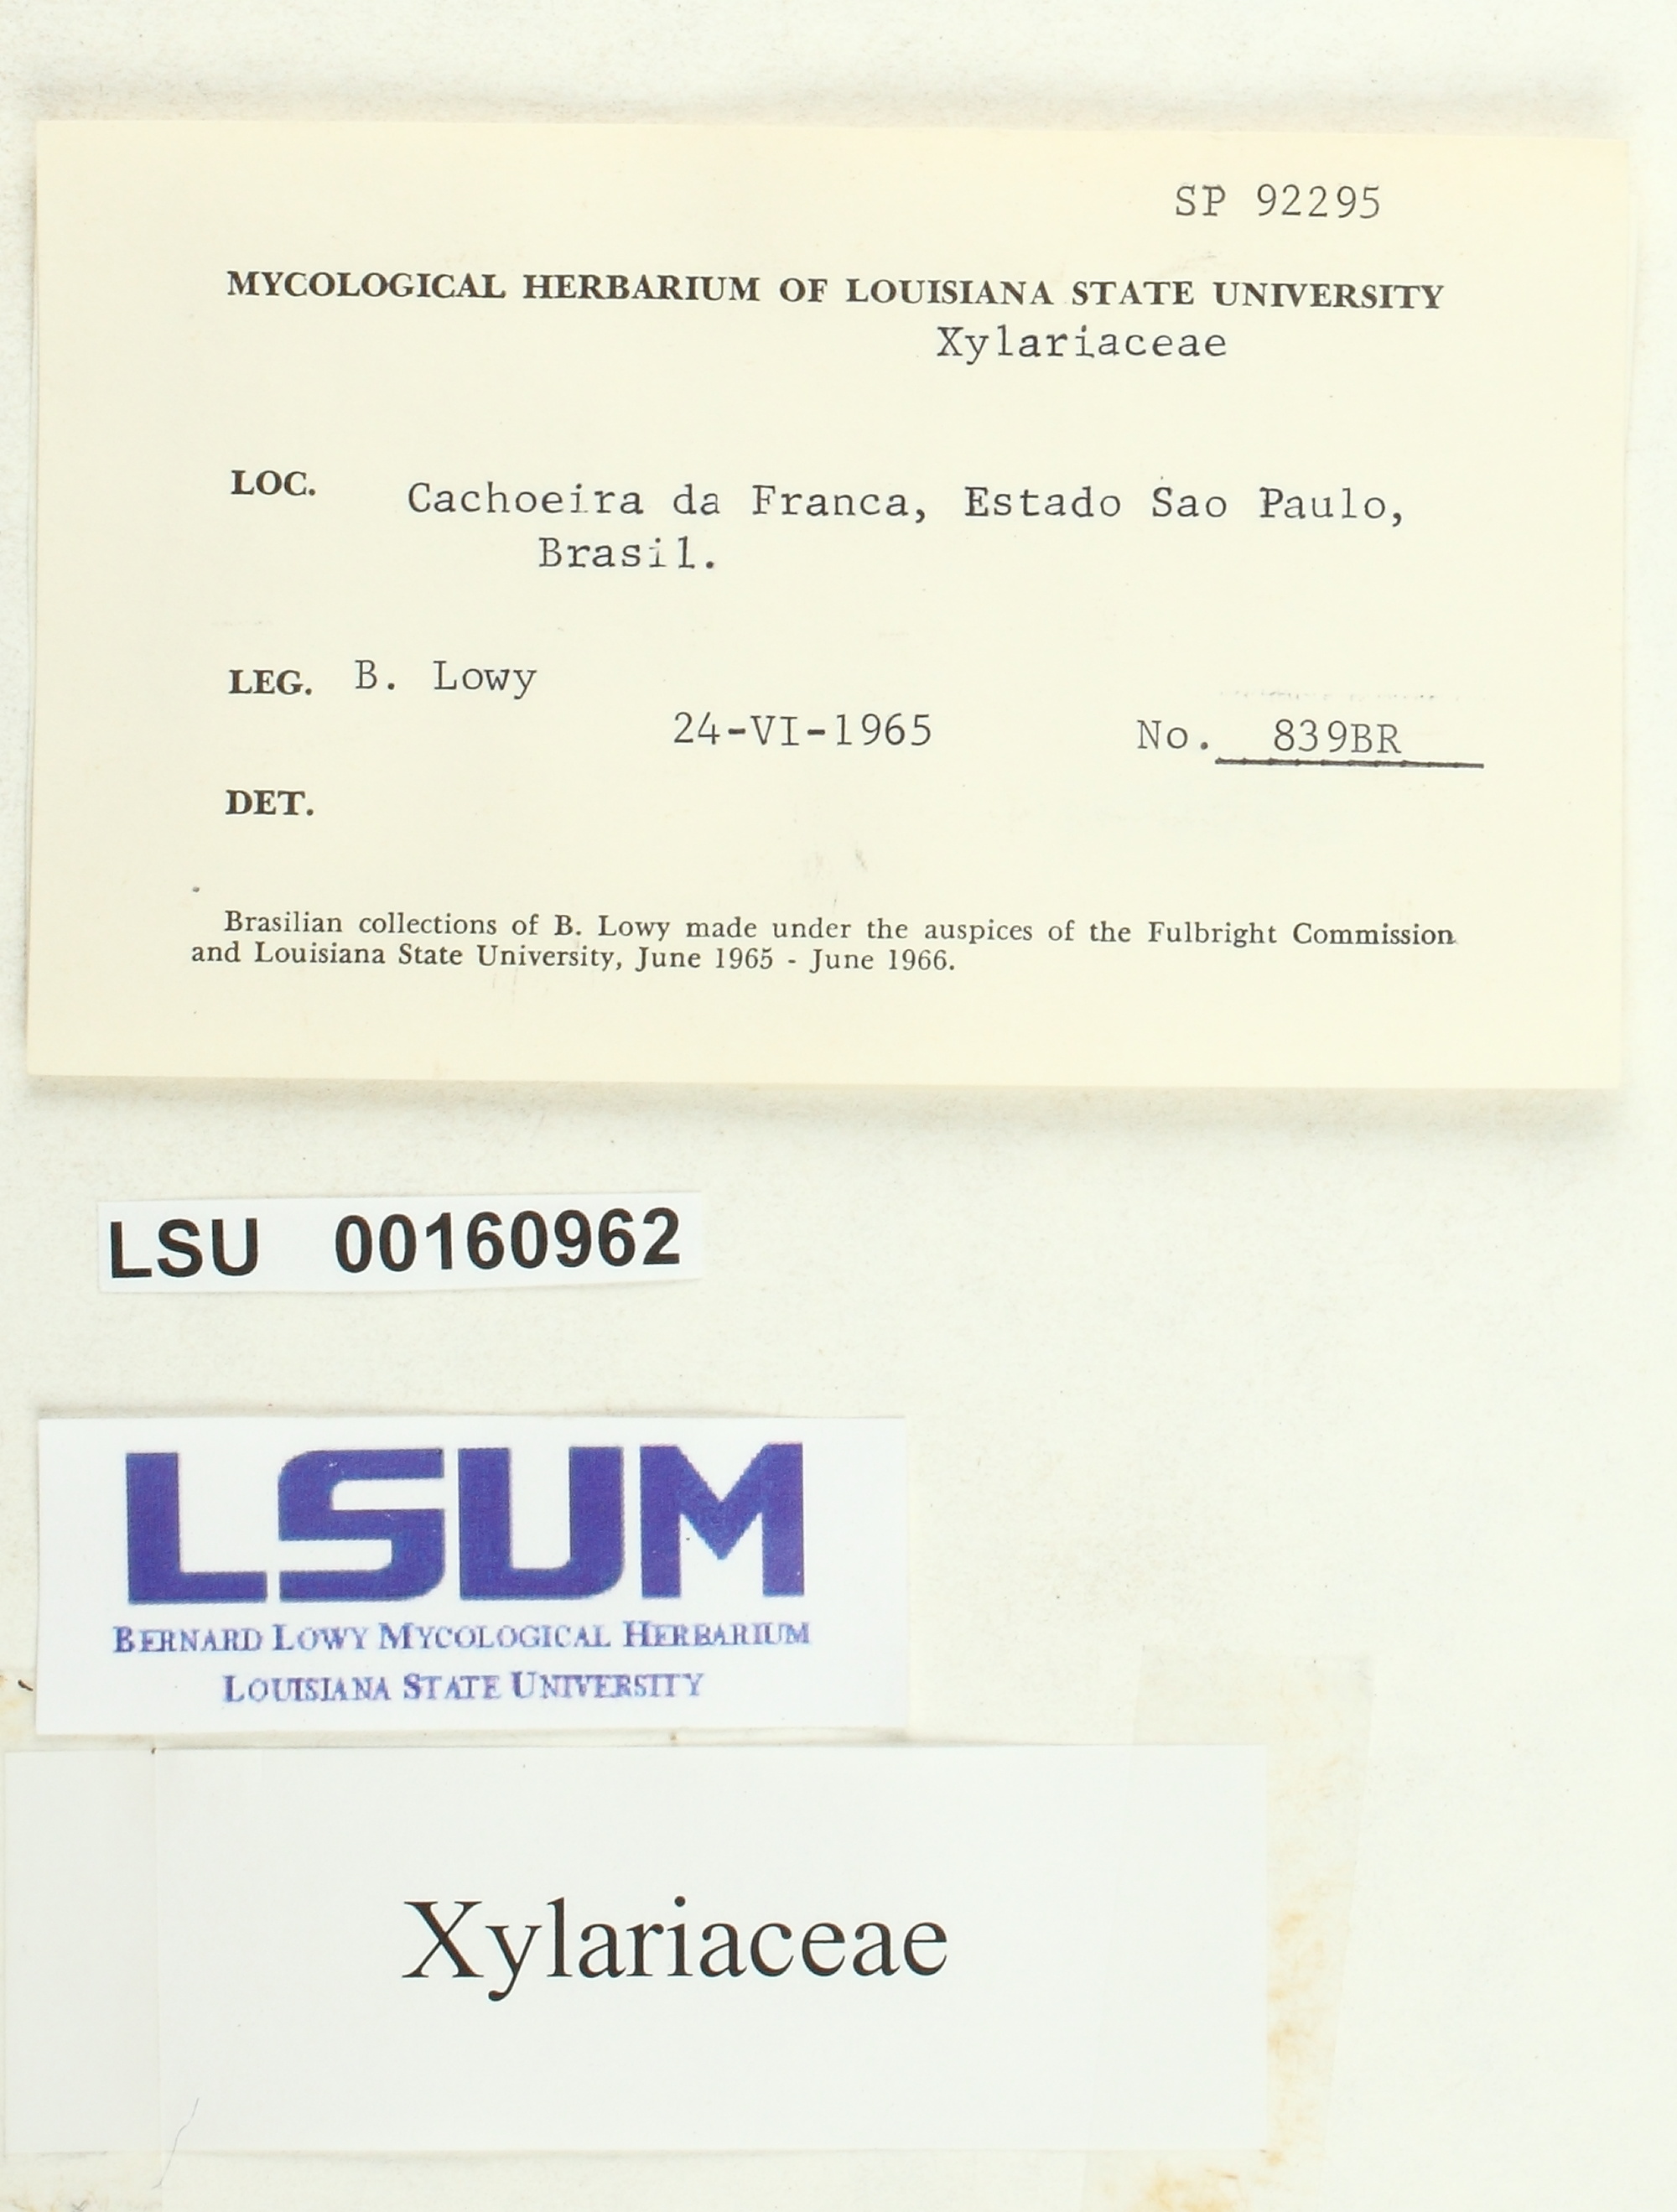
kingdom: Fungi
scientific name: Fungi
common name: Fungi
